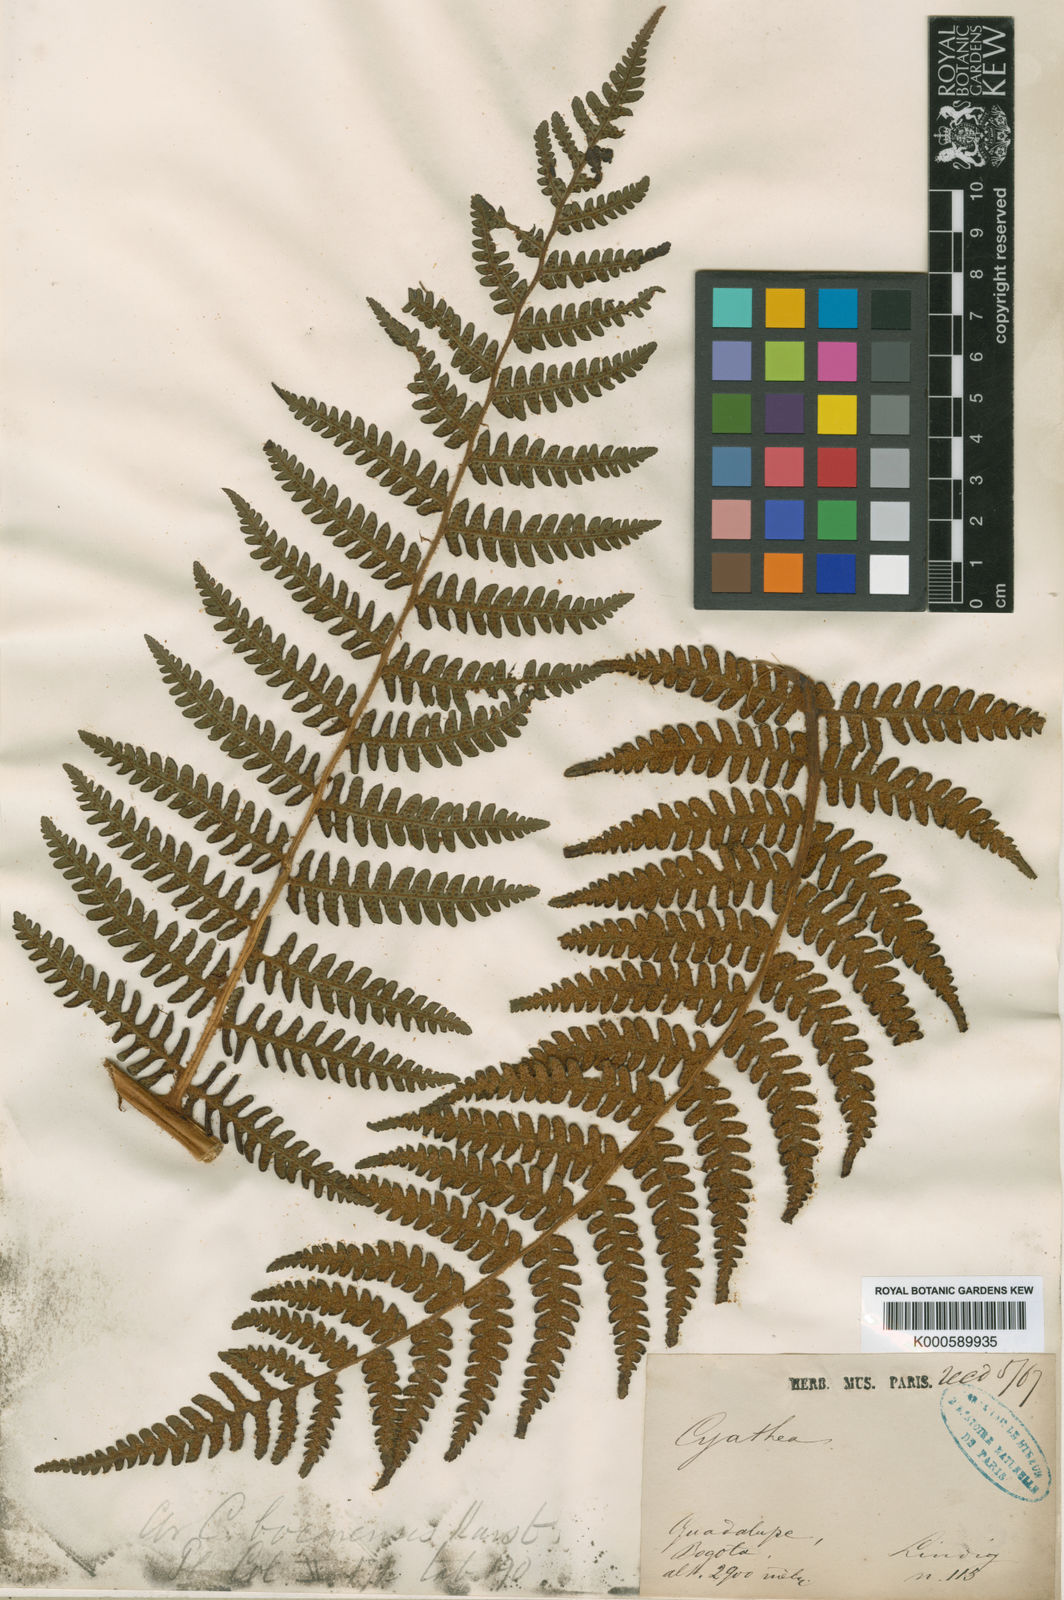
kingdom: Plantae
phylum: Tracheophyta
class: Polypodiopsida
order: Cyatheales
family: Cyatheaceae
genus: Cyathea
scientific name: Cyathea squamipes
